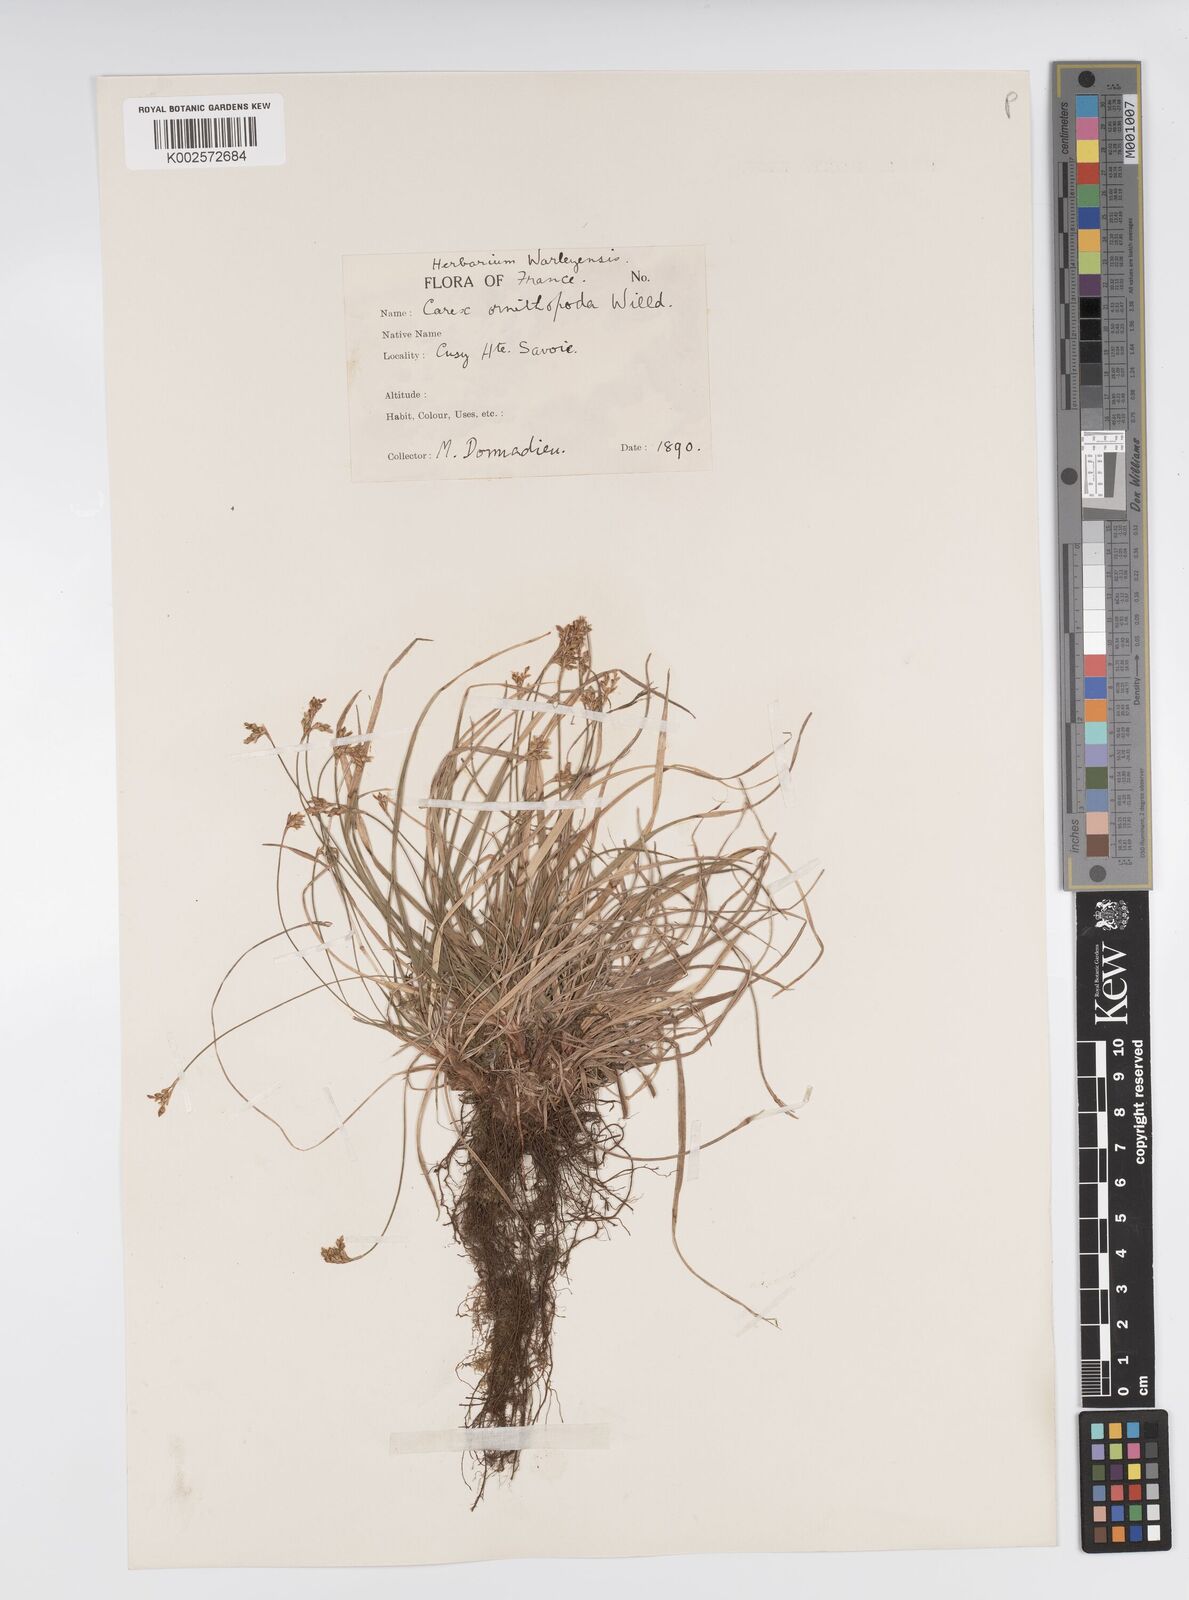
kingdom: Plantae
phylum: Tracheophyta
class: Liliopsida
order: Poales
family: Cyperaceae
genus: Carex
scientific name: Carex ornithopoda
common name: Bird's-foot sedge
